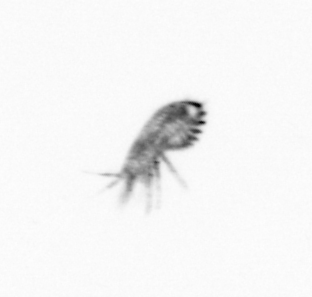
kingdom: Animalia
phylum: Arthropoda
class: Copepoda
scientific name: Copepoda
